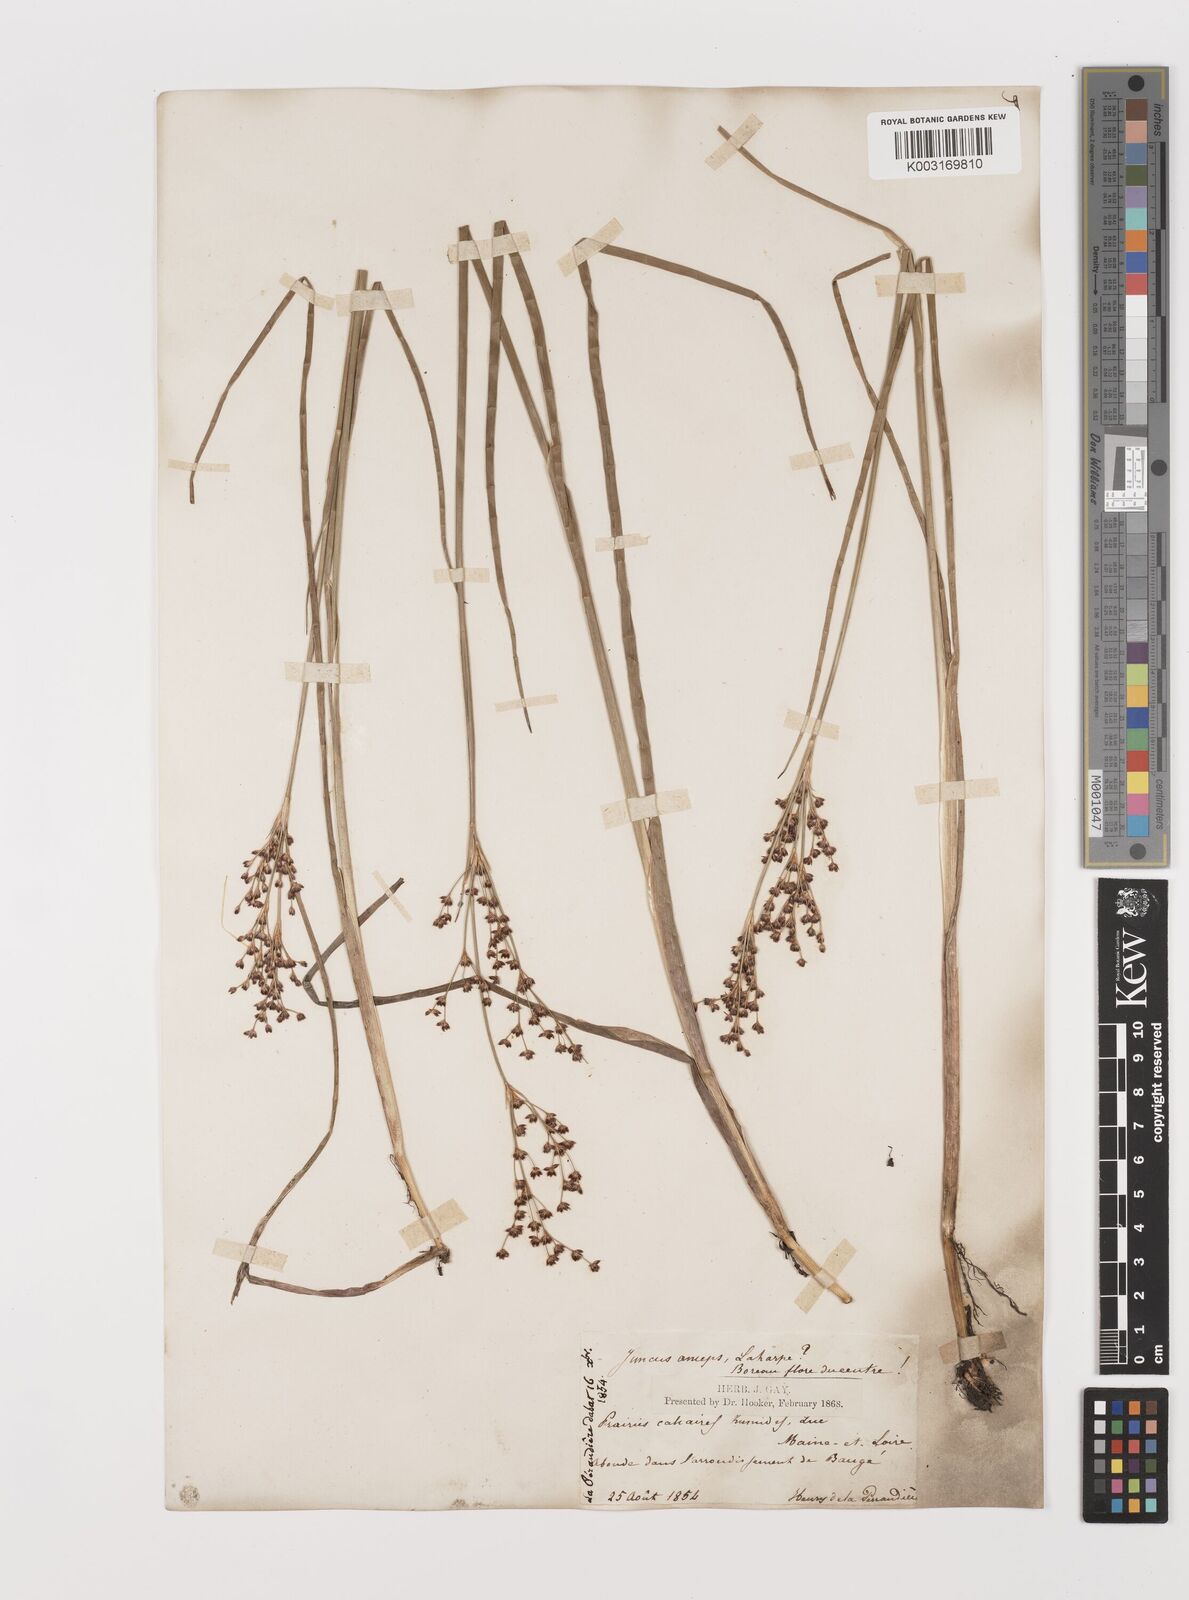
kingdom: Plantae
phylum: Tracheophyta
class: Liliopsida
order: Poales
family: Juncaceae
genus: Juncus
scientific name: Juncus anceps
